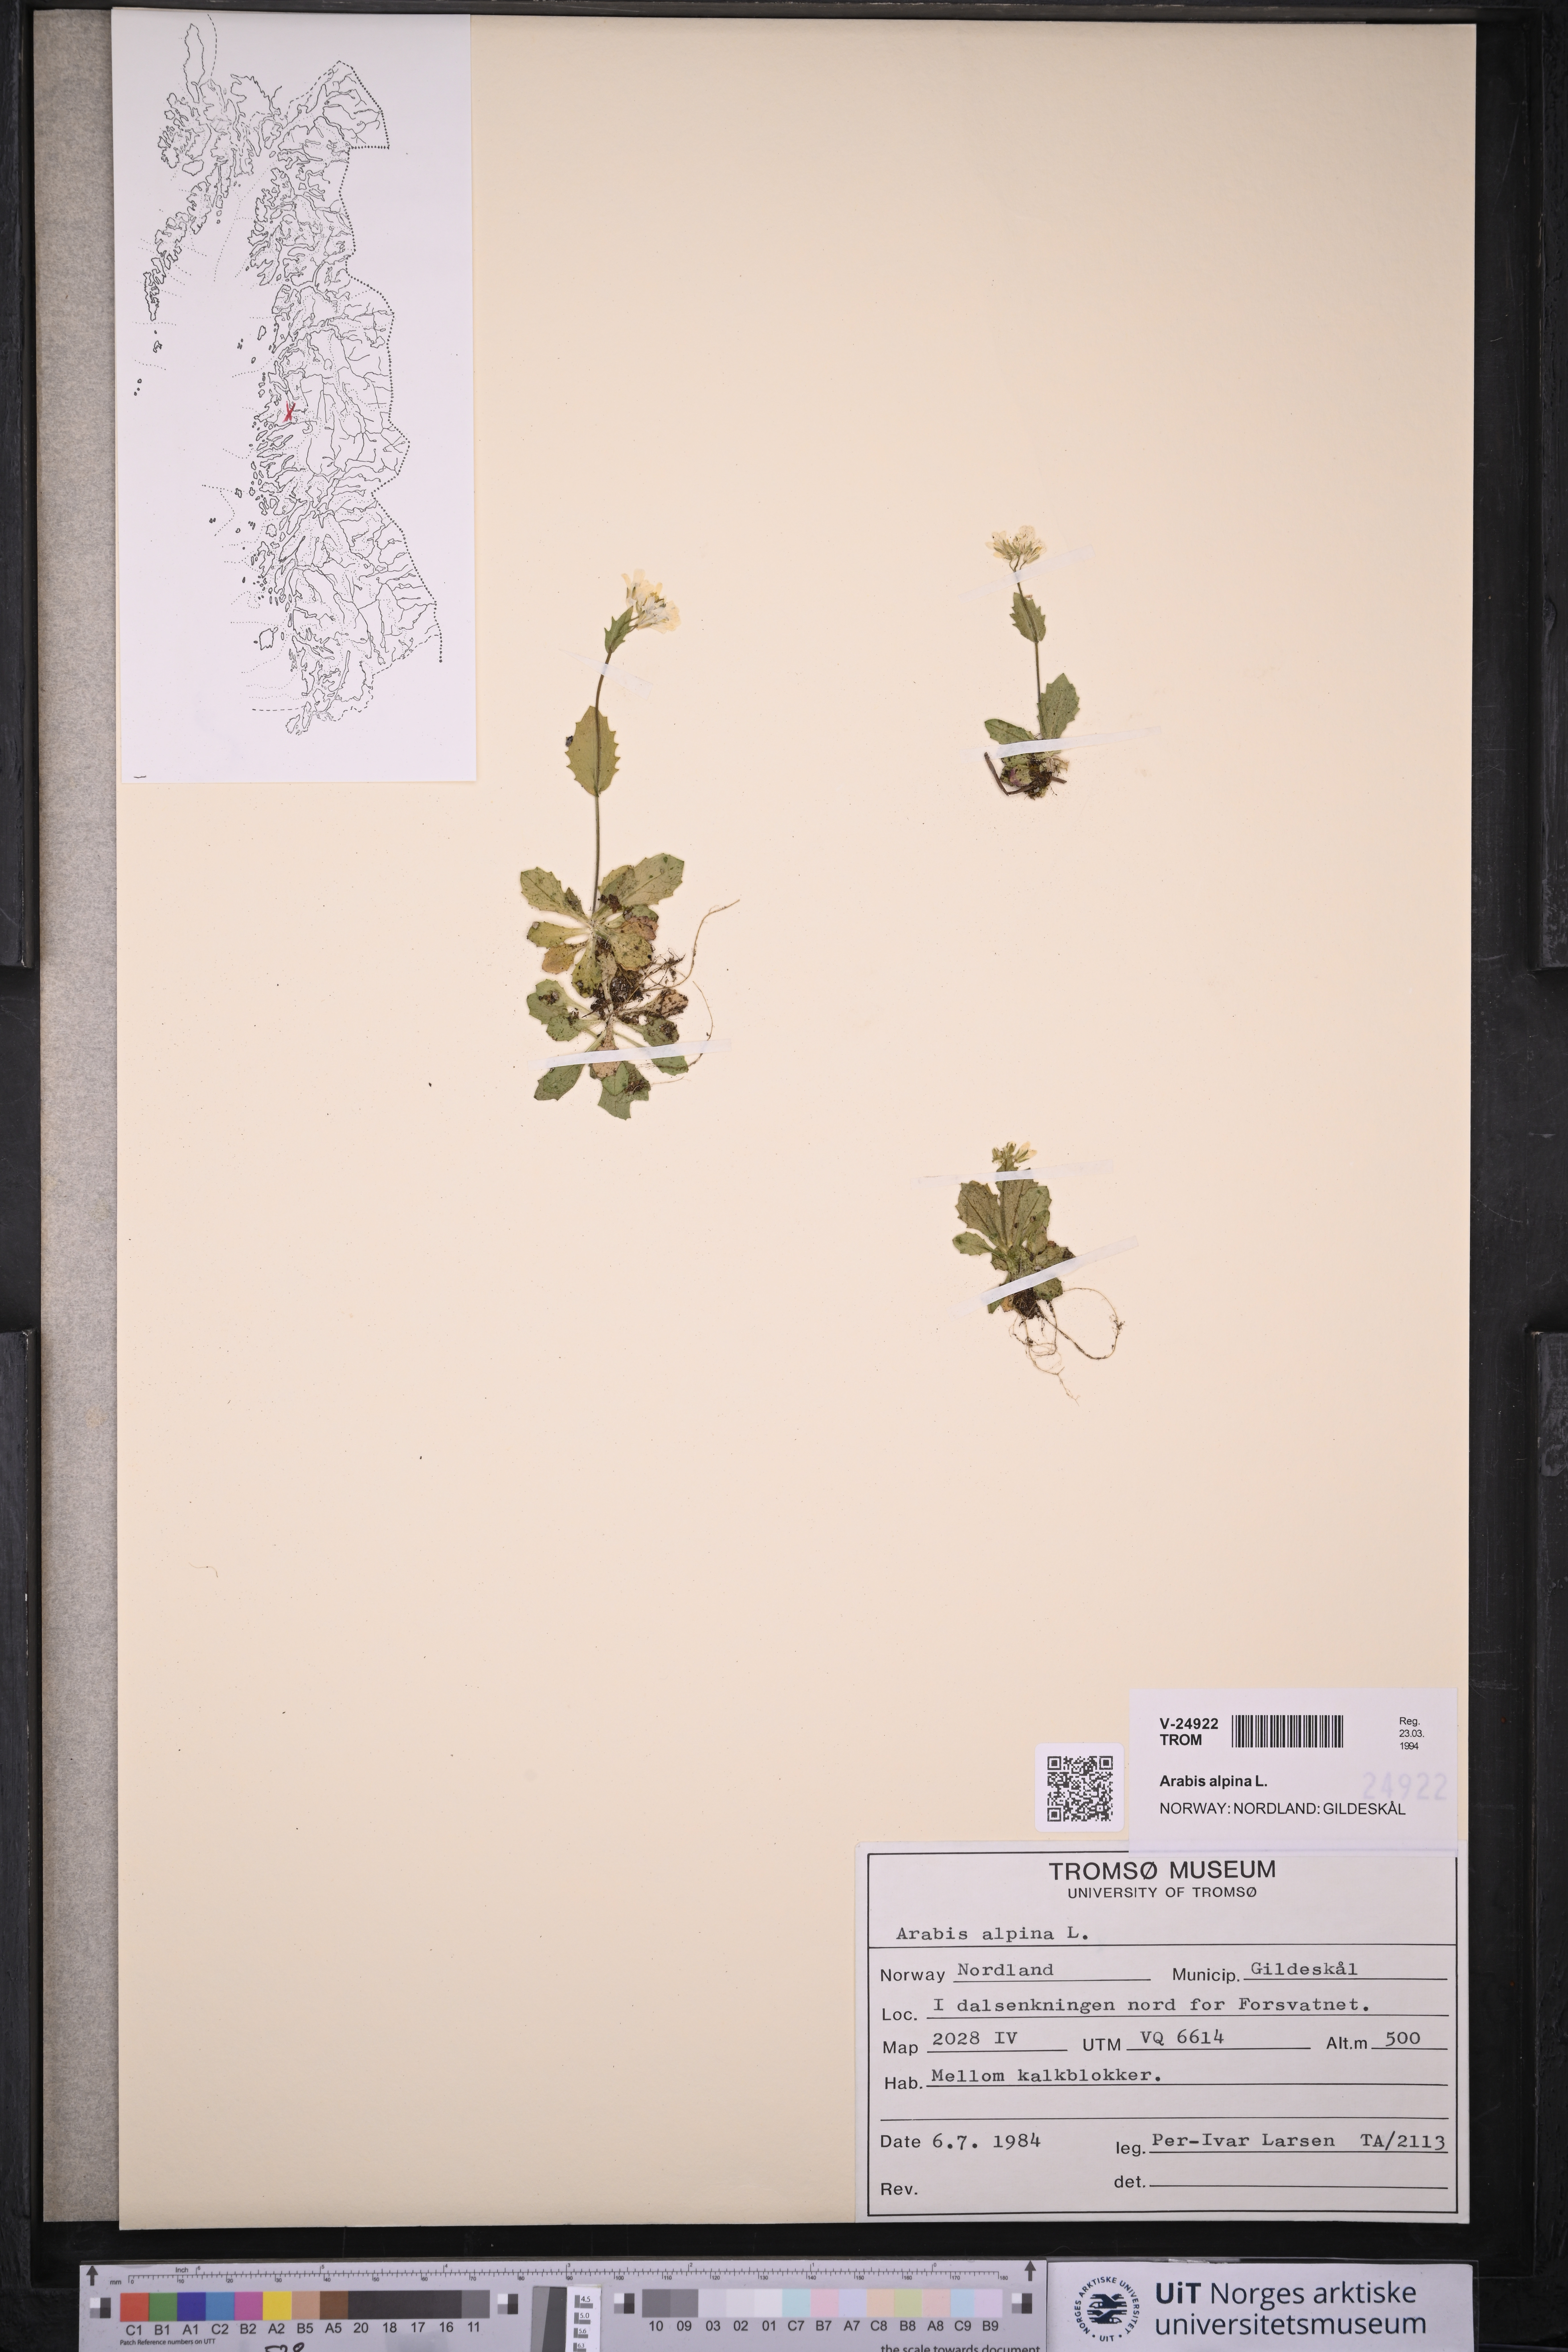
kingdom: Plantae
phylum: Tracheophyta
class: Magnoliopsida
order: Brassicales
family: Brassicaceae
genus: Arabis
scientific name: Arabis alpina
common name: Alpine rock-cress
